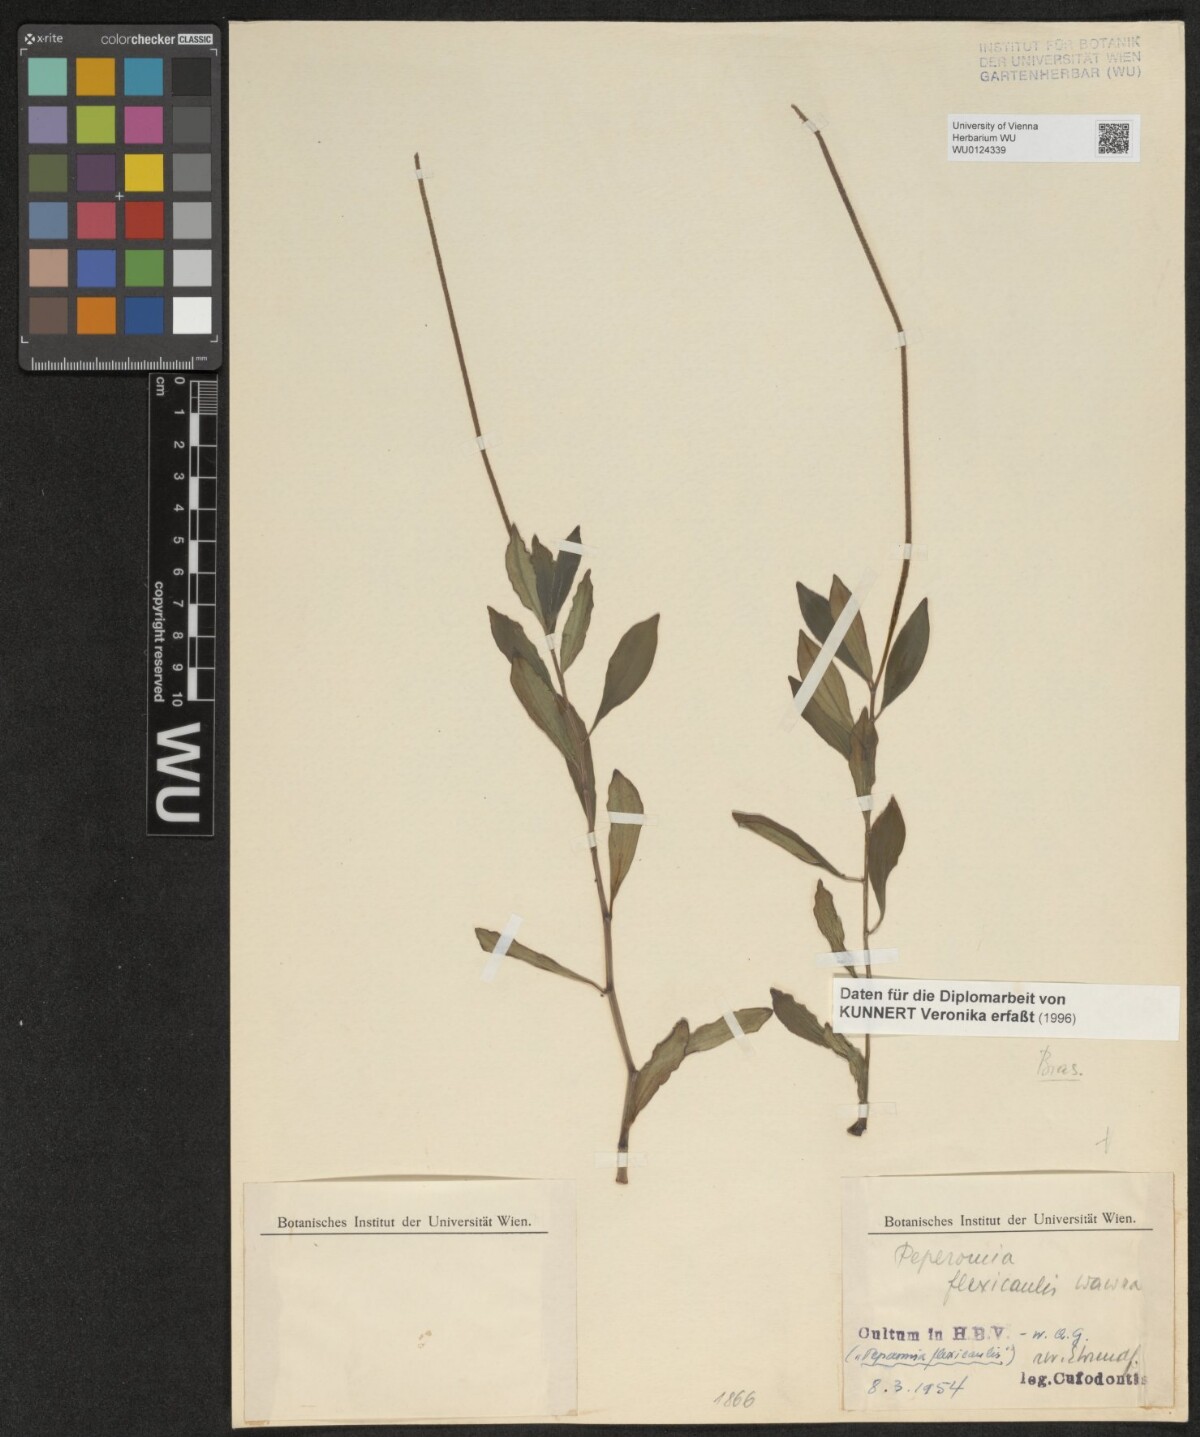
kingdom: Plantae
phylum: Tracheophyta
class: Magnoliopsida
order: Piperales
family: Piperaceae
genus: Peperomia
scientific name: Peperomia flexicaulis
